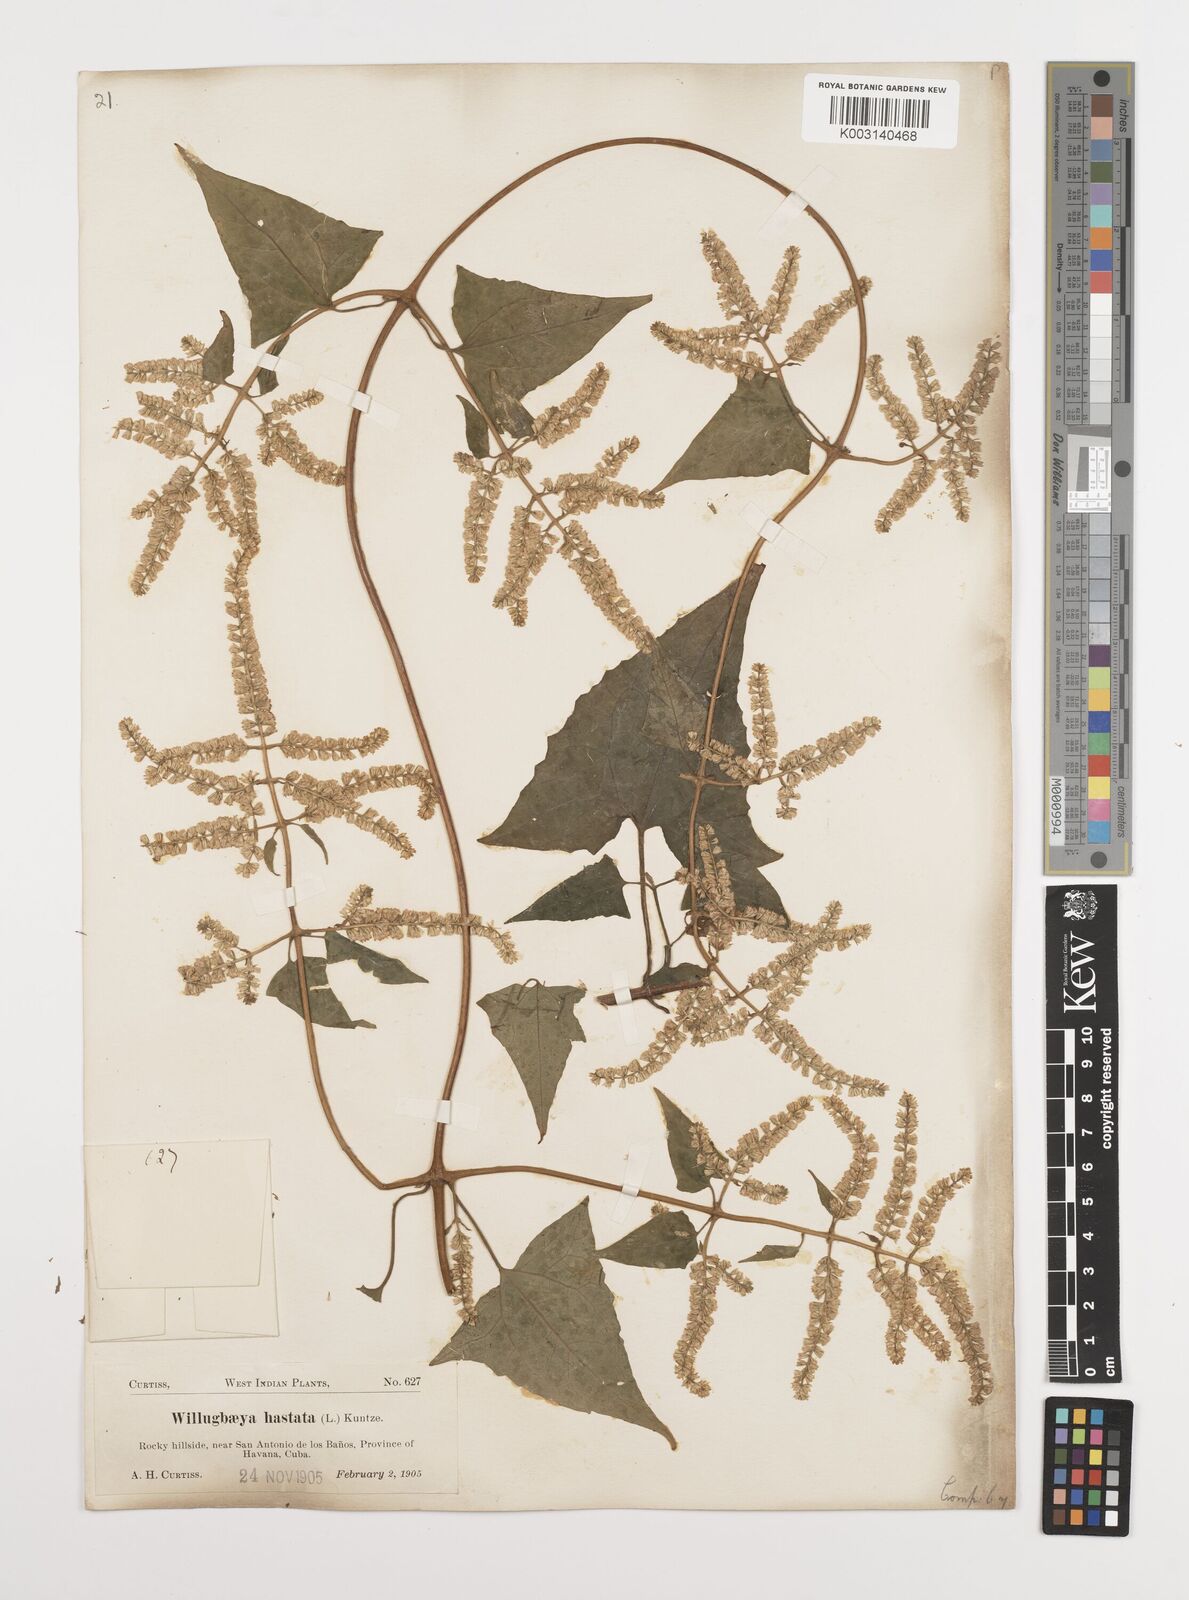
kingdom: Plantae
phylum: Tracheophyta
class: Magnoliopsida
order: Asterales
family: Asteraceae
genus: Mikania
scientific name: Mikania hastata
